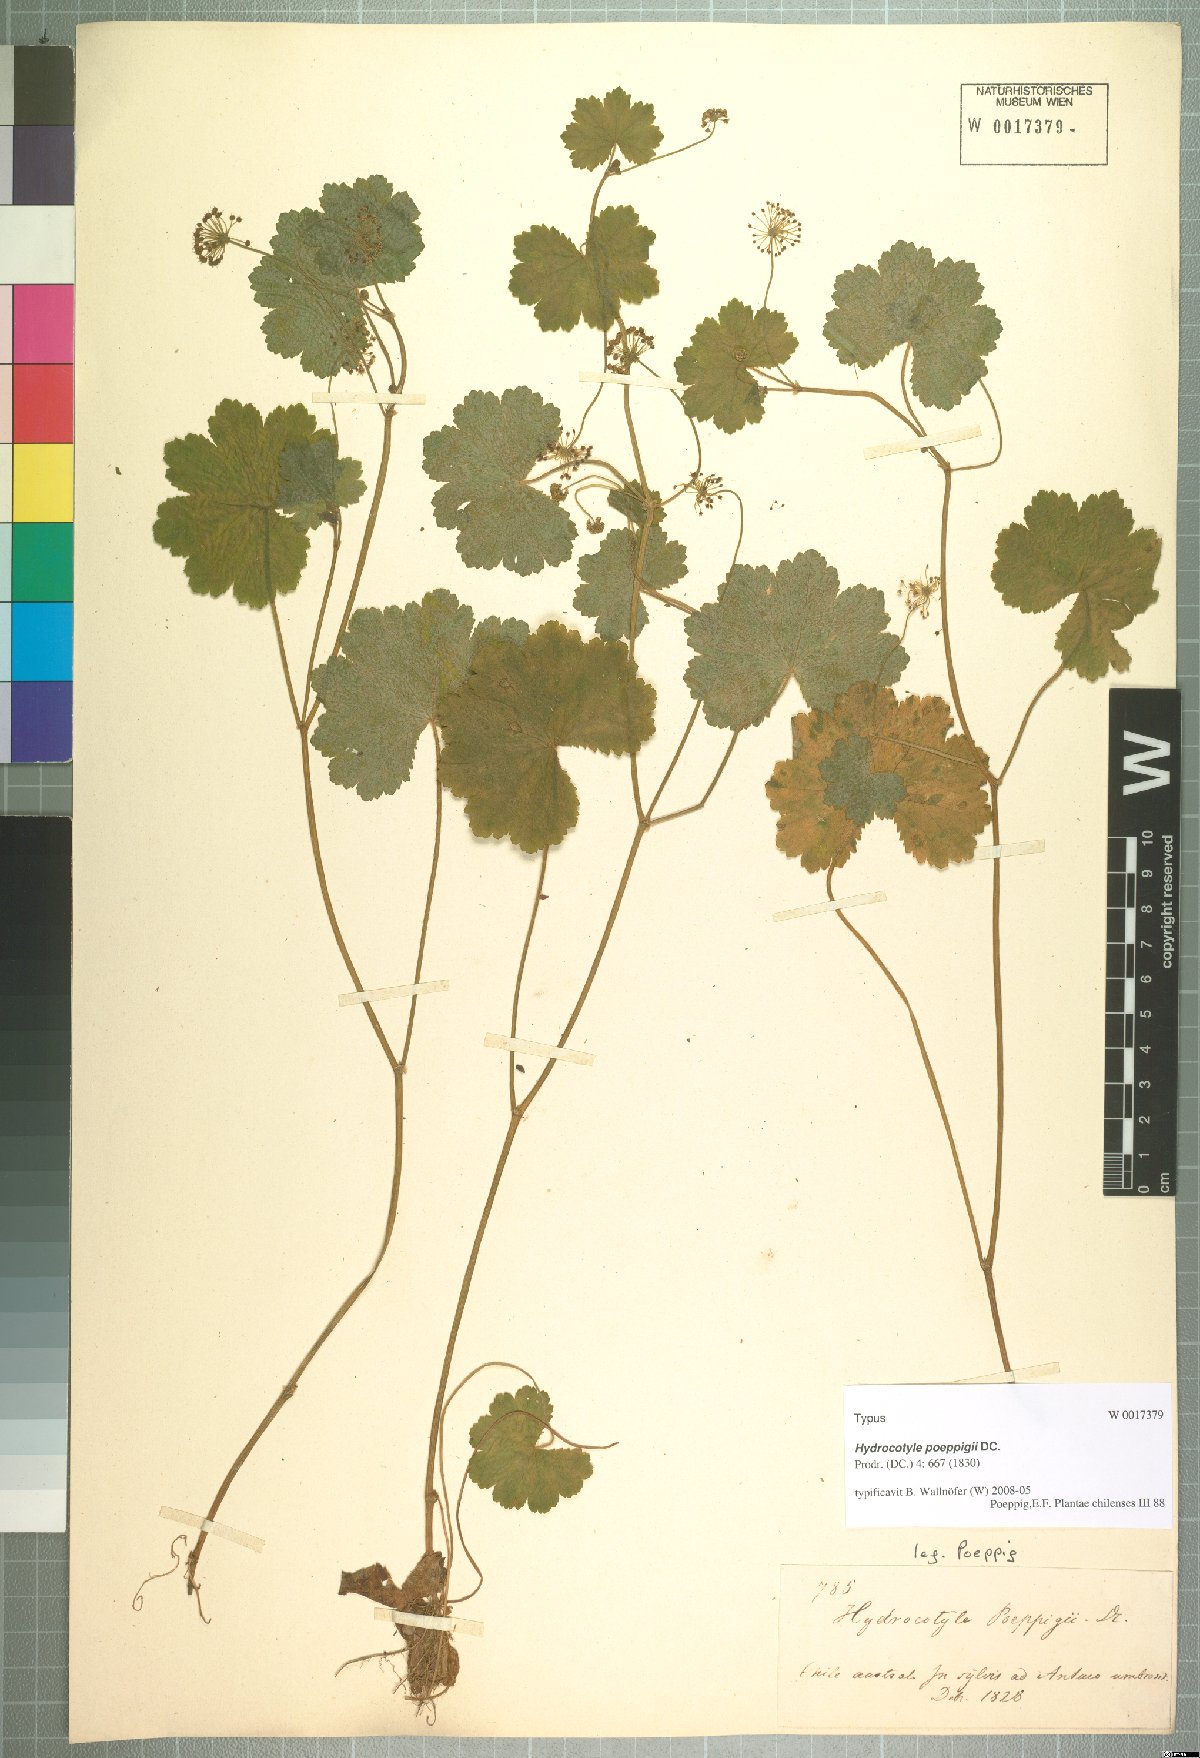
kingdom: Plantae
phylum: Tracheophyta
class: Magnoliopsida
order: Apiales
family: Araliaceae
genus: Hydrocotyle
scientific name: Hydrocotyle poeppigii
